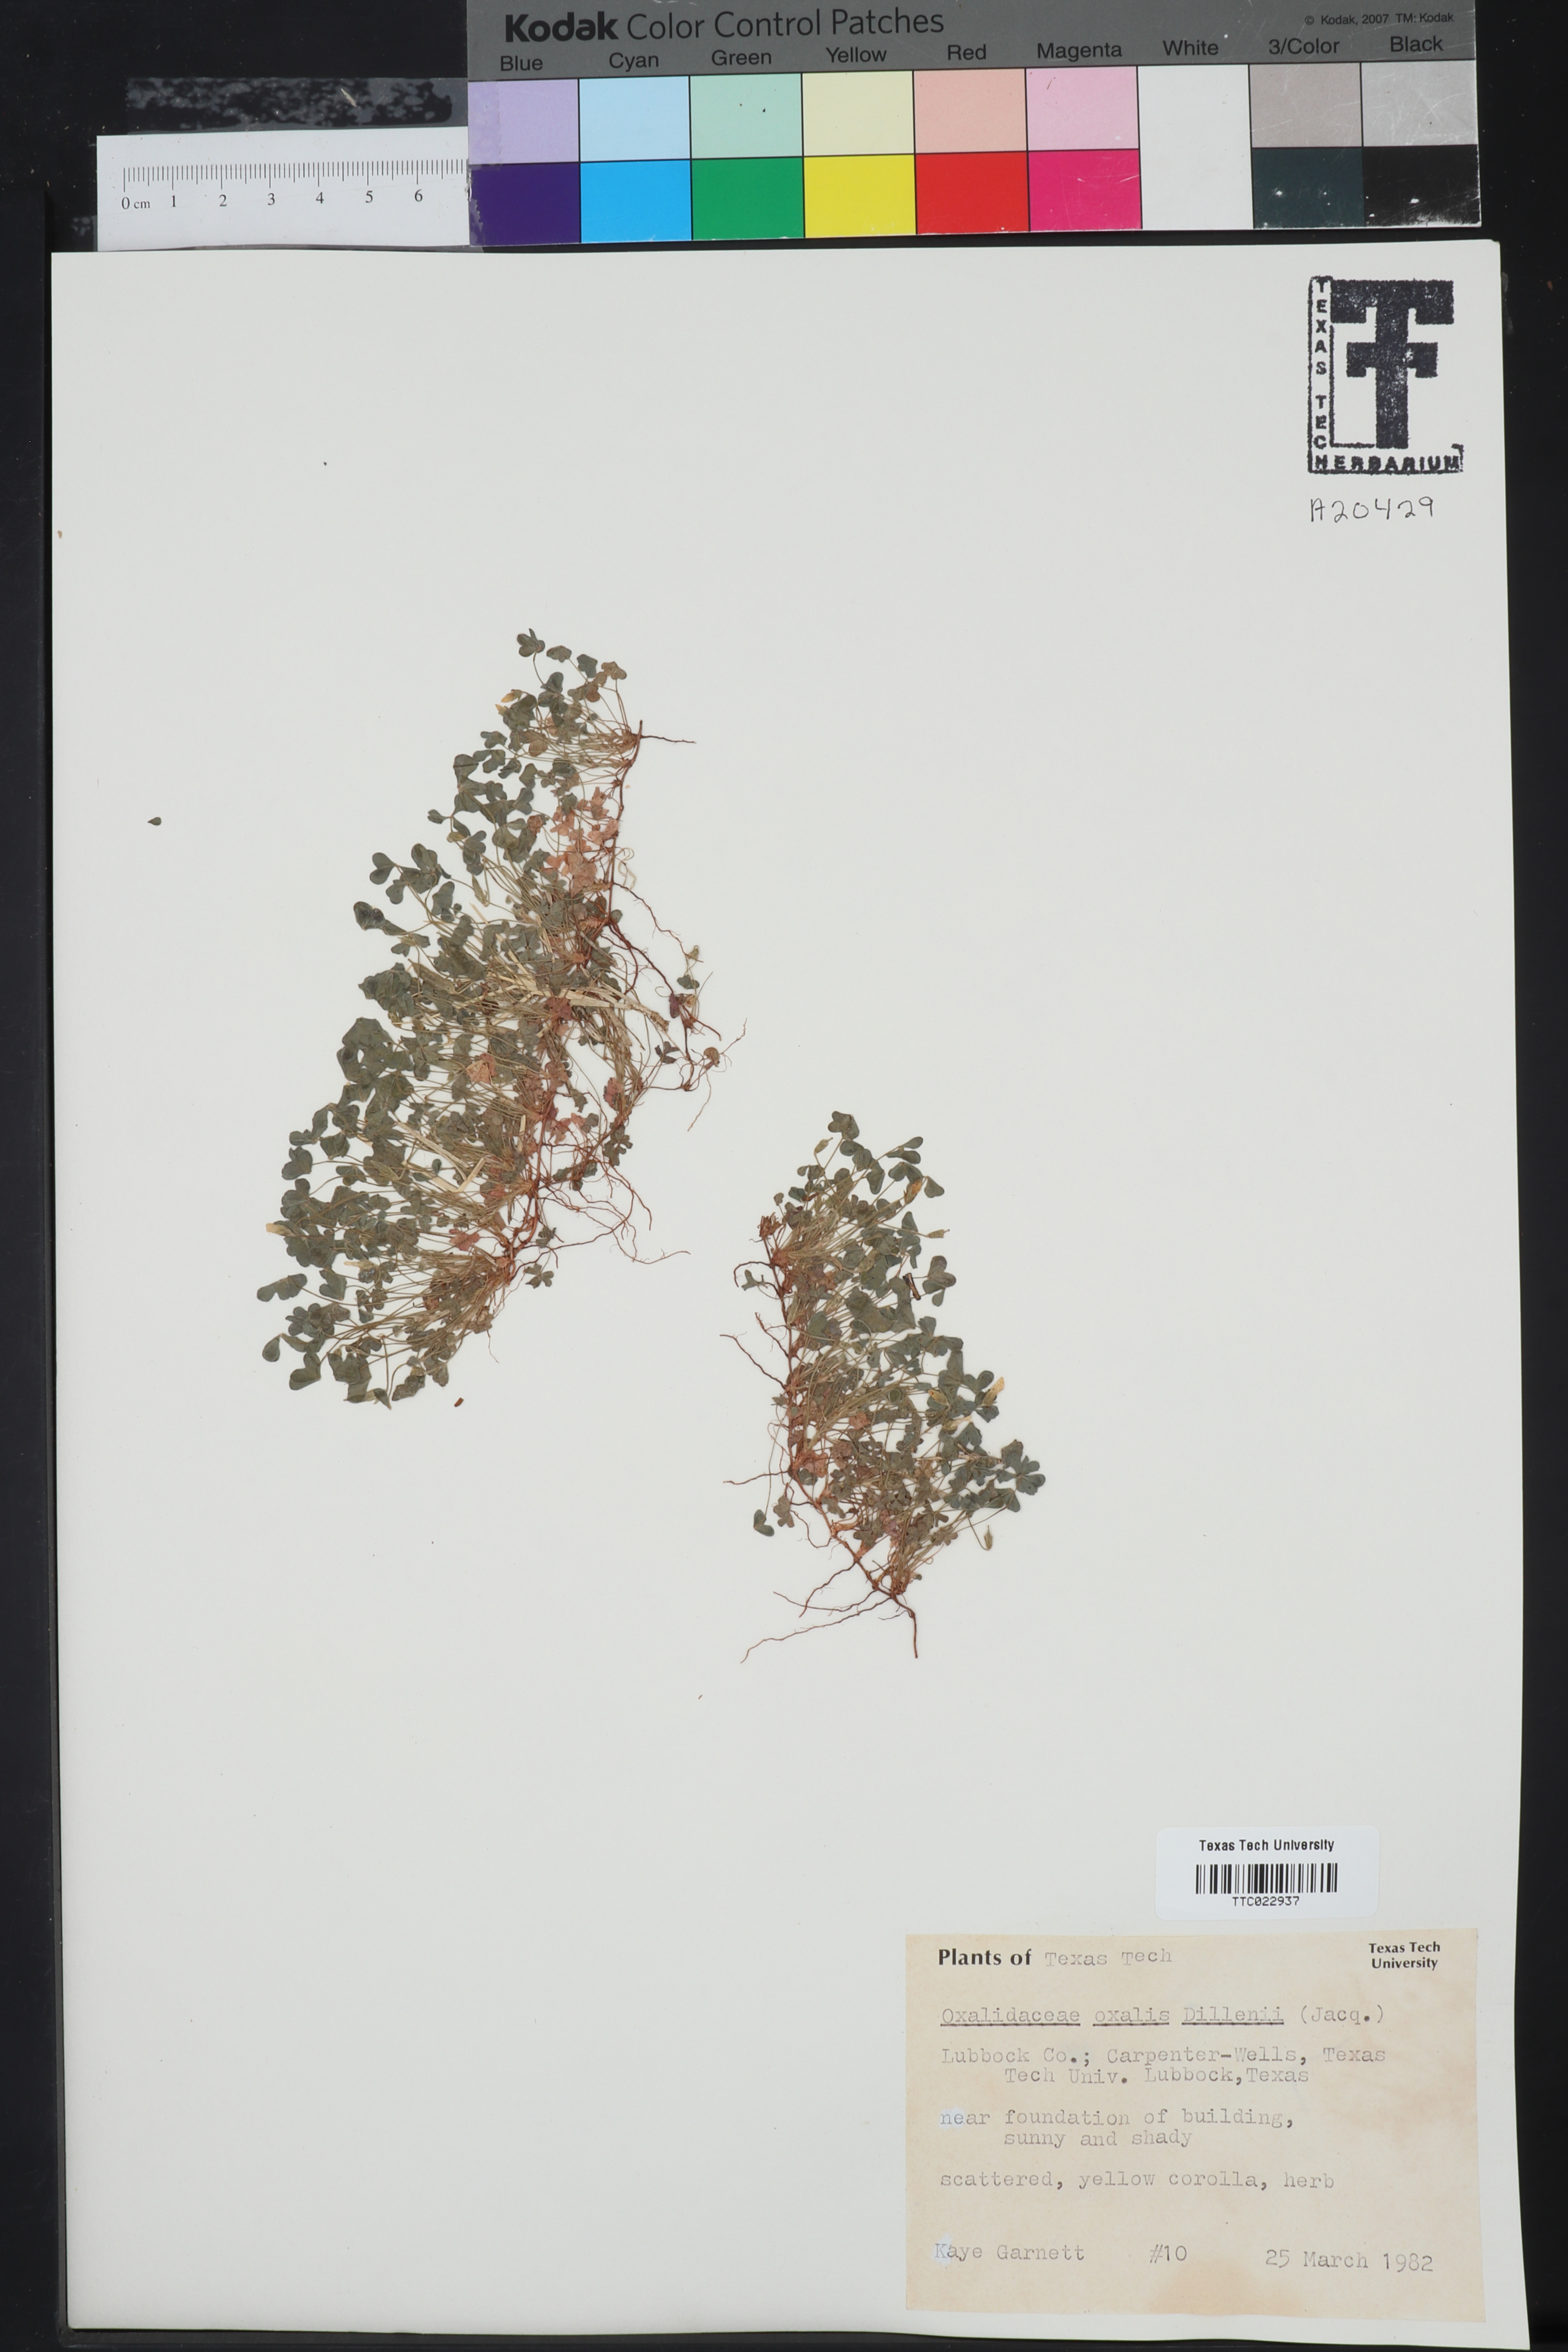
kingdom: Plantae
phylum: Tracheophyta
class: Magnoliopsida
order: Oxalidales
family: Oxalidaceae
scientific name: Oxalidaceae
